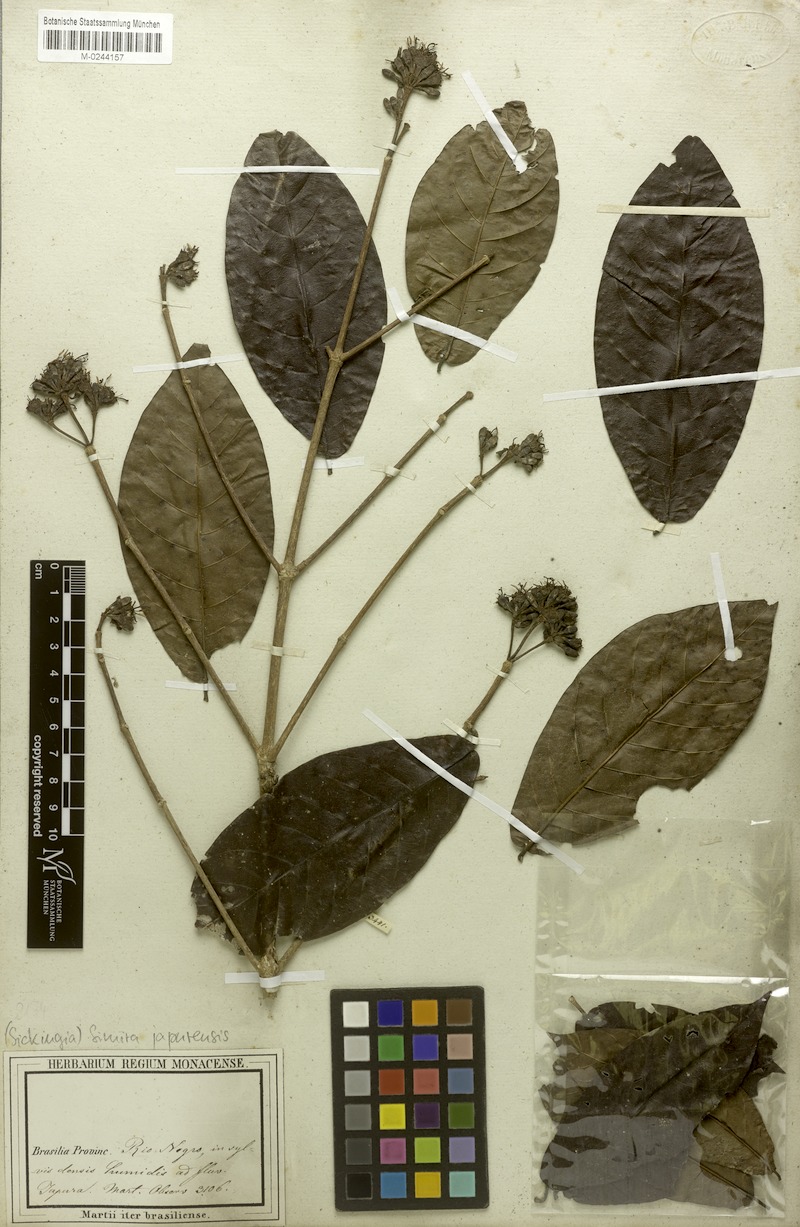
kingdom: Plantae
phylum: Tracheophyta
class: Magnoliopsida
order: Gentianales
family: Rubiaceae
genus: Simira
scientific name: Simira rubescens
